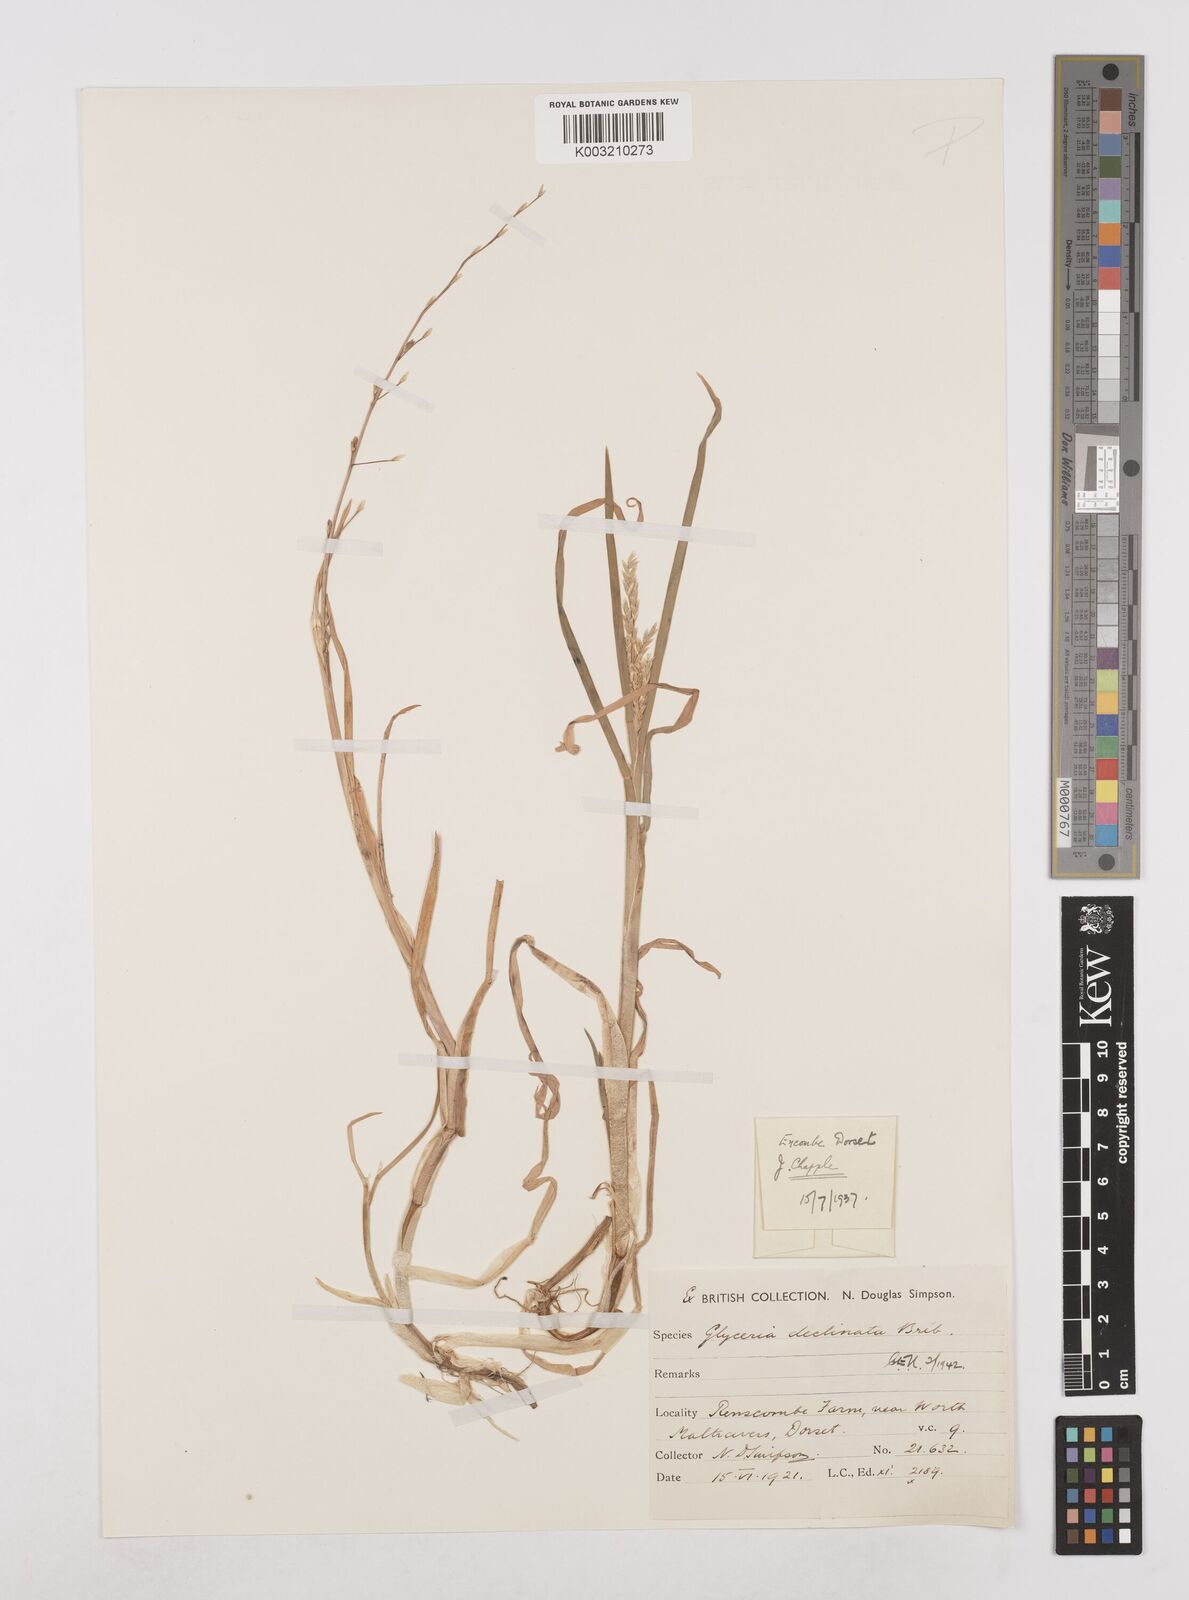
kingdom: Plantae
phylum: Tracheophyta
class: Liliopsida
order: Poales
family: Poaceae
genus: Glyceria
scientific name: Glyceria declinata
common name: Small sweet-grass
